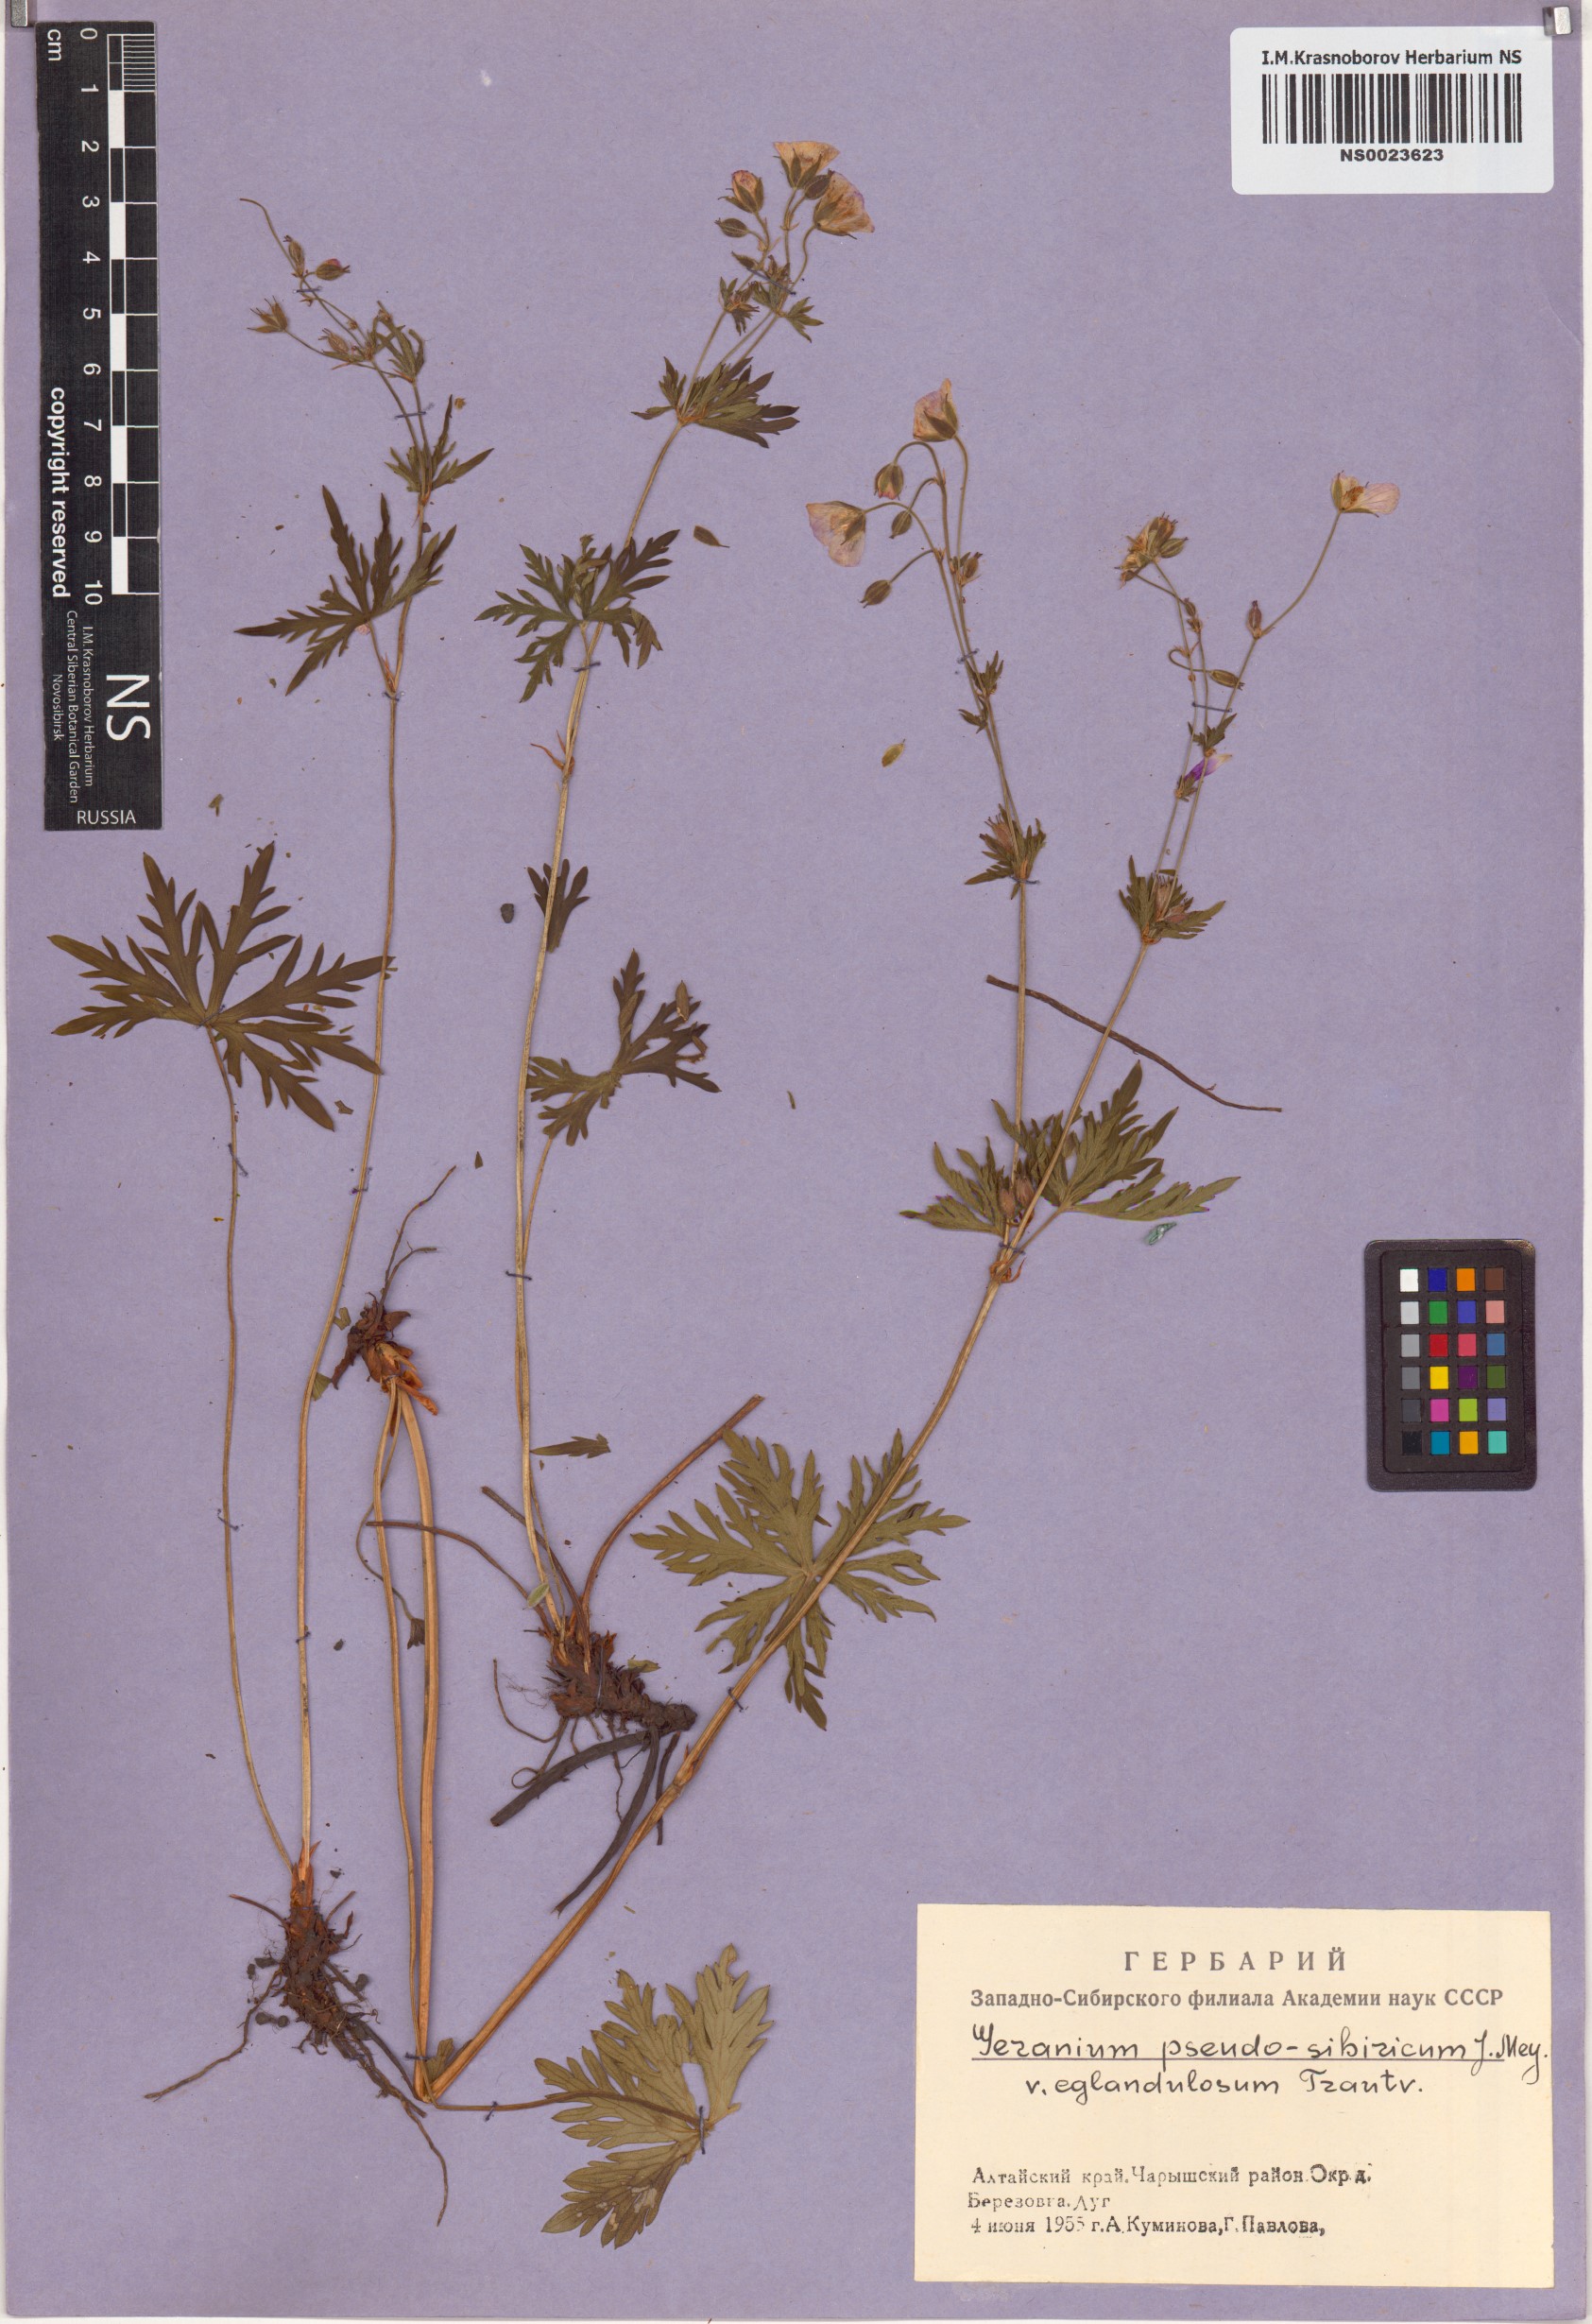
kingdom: Plantae
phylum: Tracheophyta
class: Magnoliopsida
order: Geraniales
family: Geraniaceae
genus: Geranium
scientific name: Geranium pseudosibiricum
